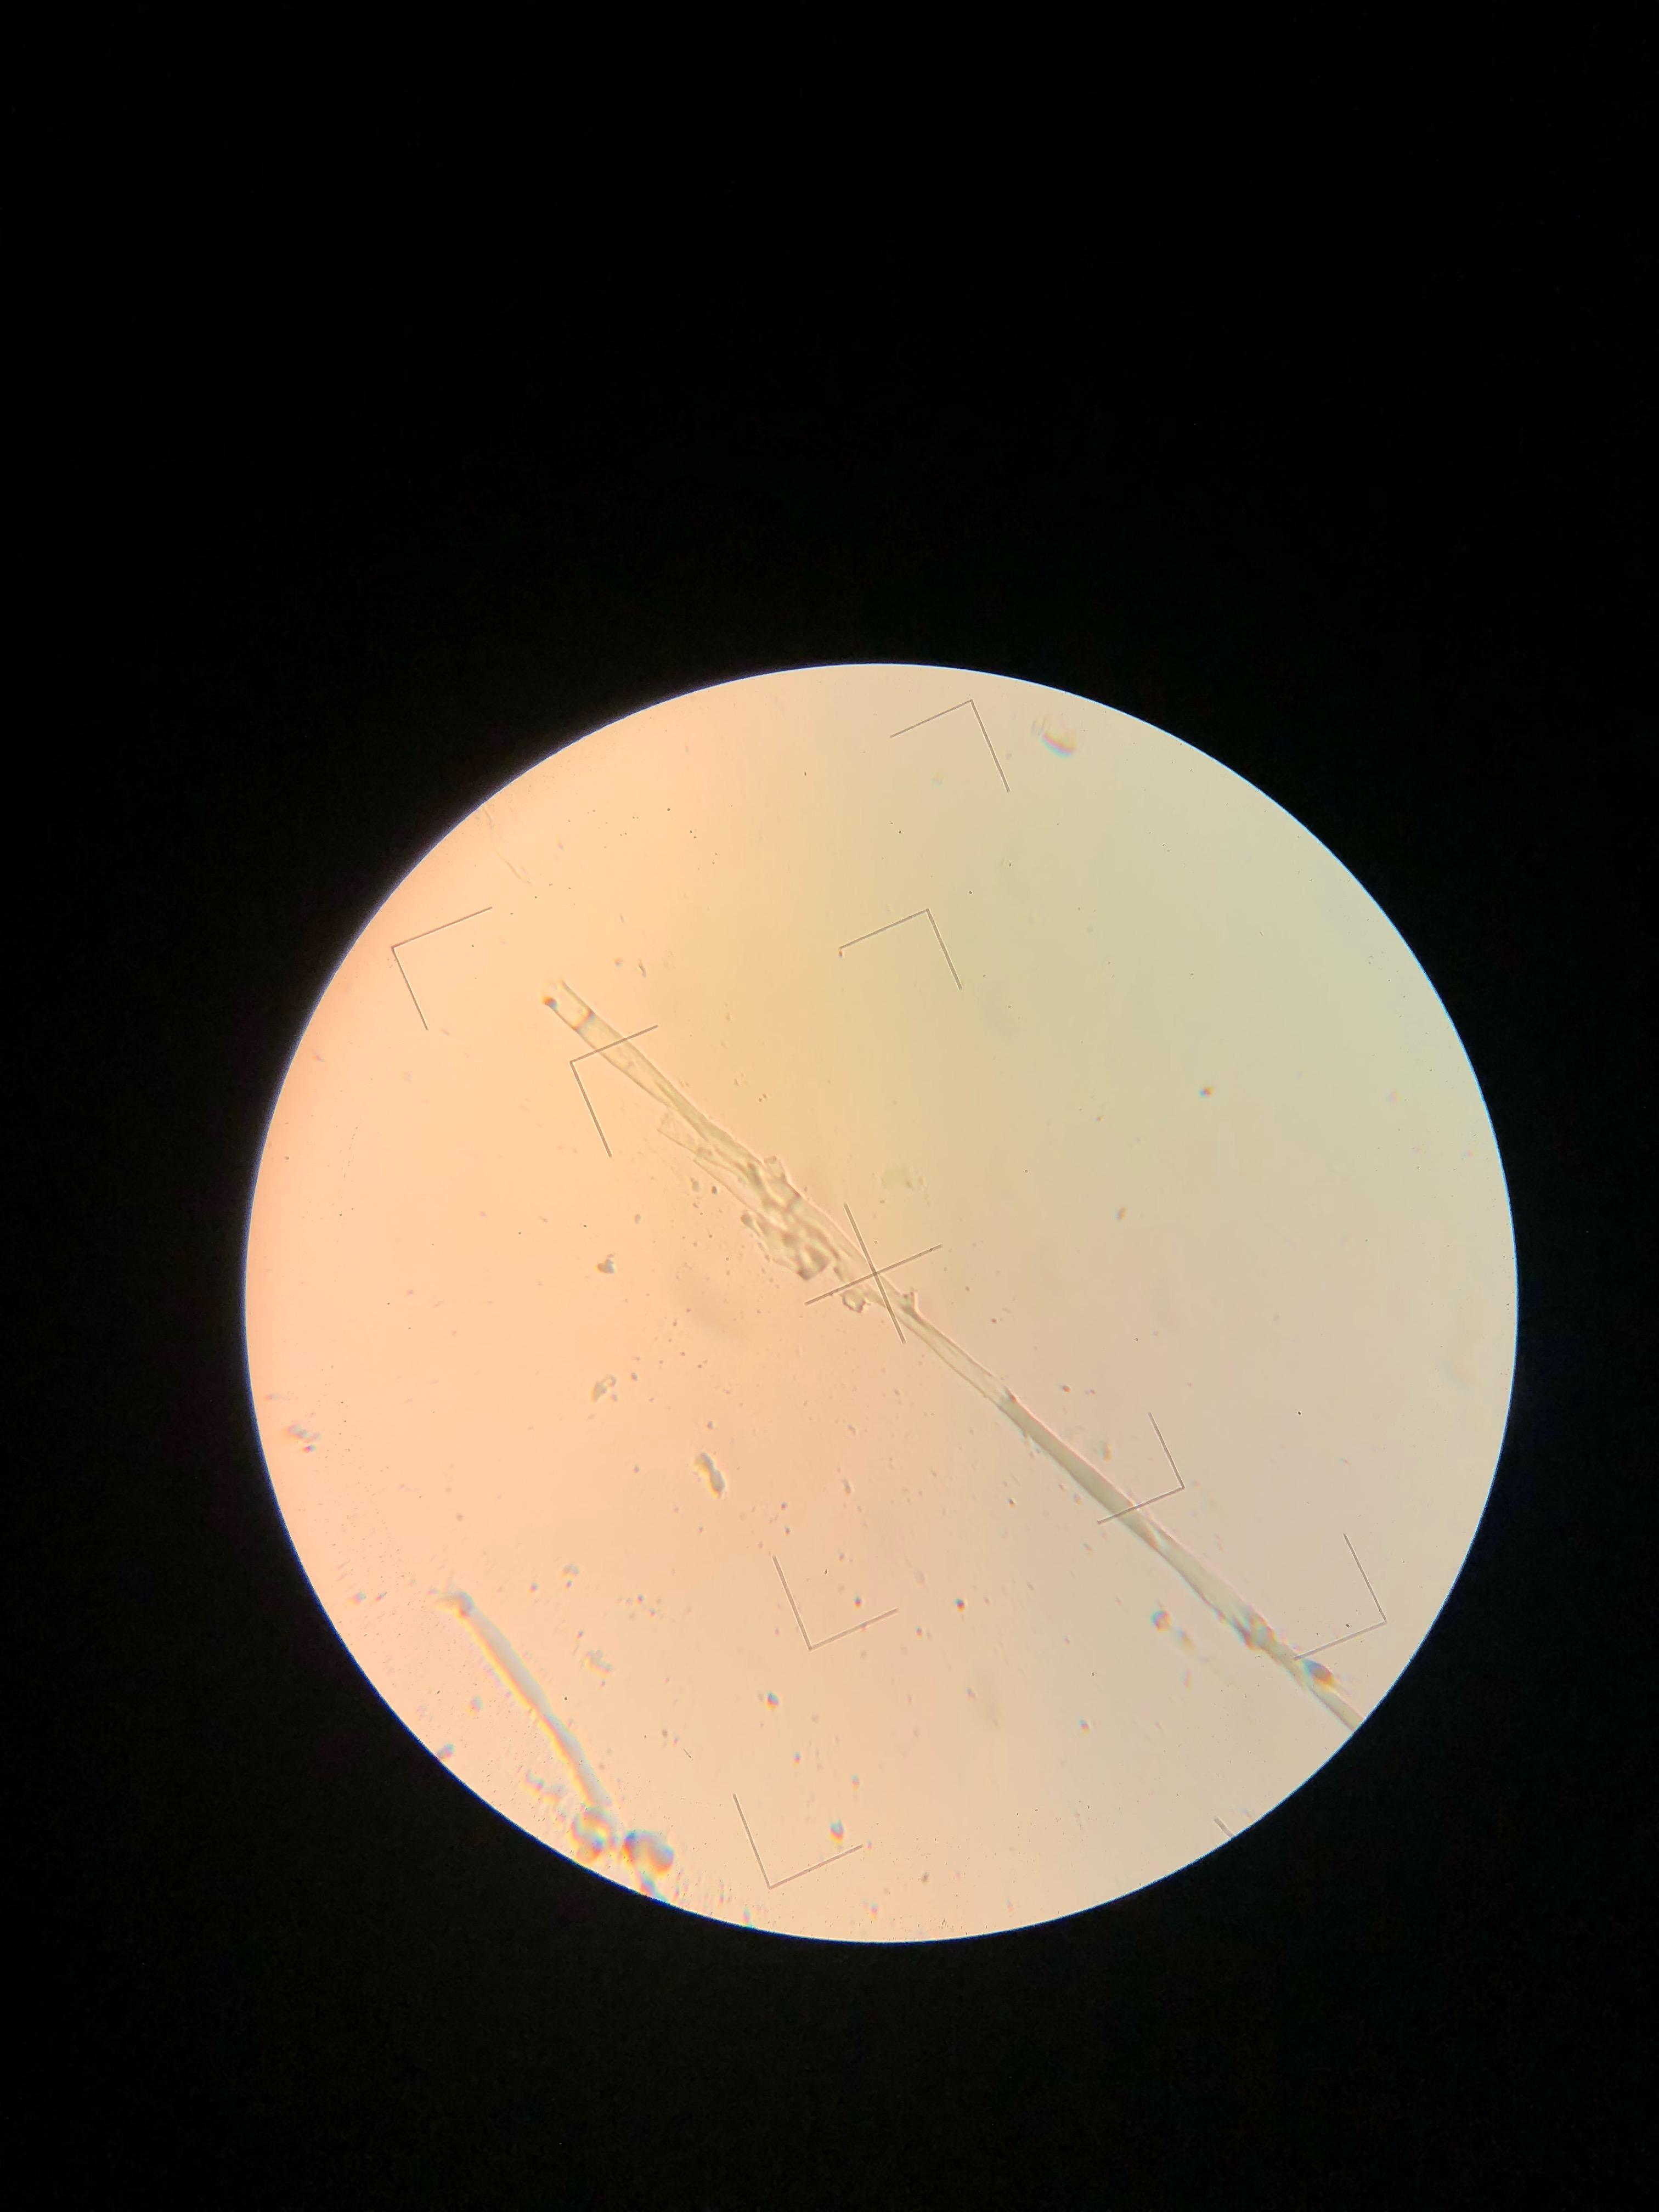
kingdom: Fungi
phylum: Basidiomycota
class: Agaricomycetes
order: Polyporales
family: Irpicaceae
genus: Ceriporia
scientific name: Ceriporia purpurea
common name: purpur-voksporesvamp
